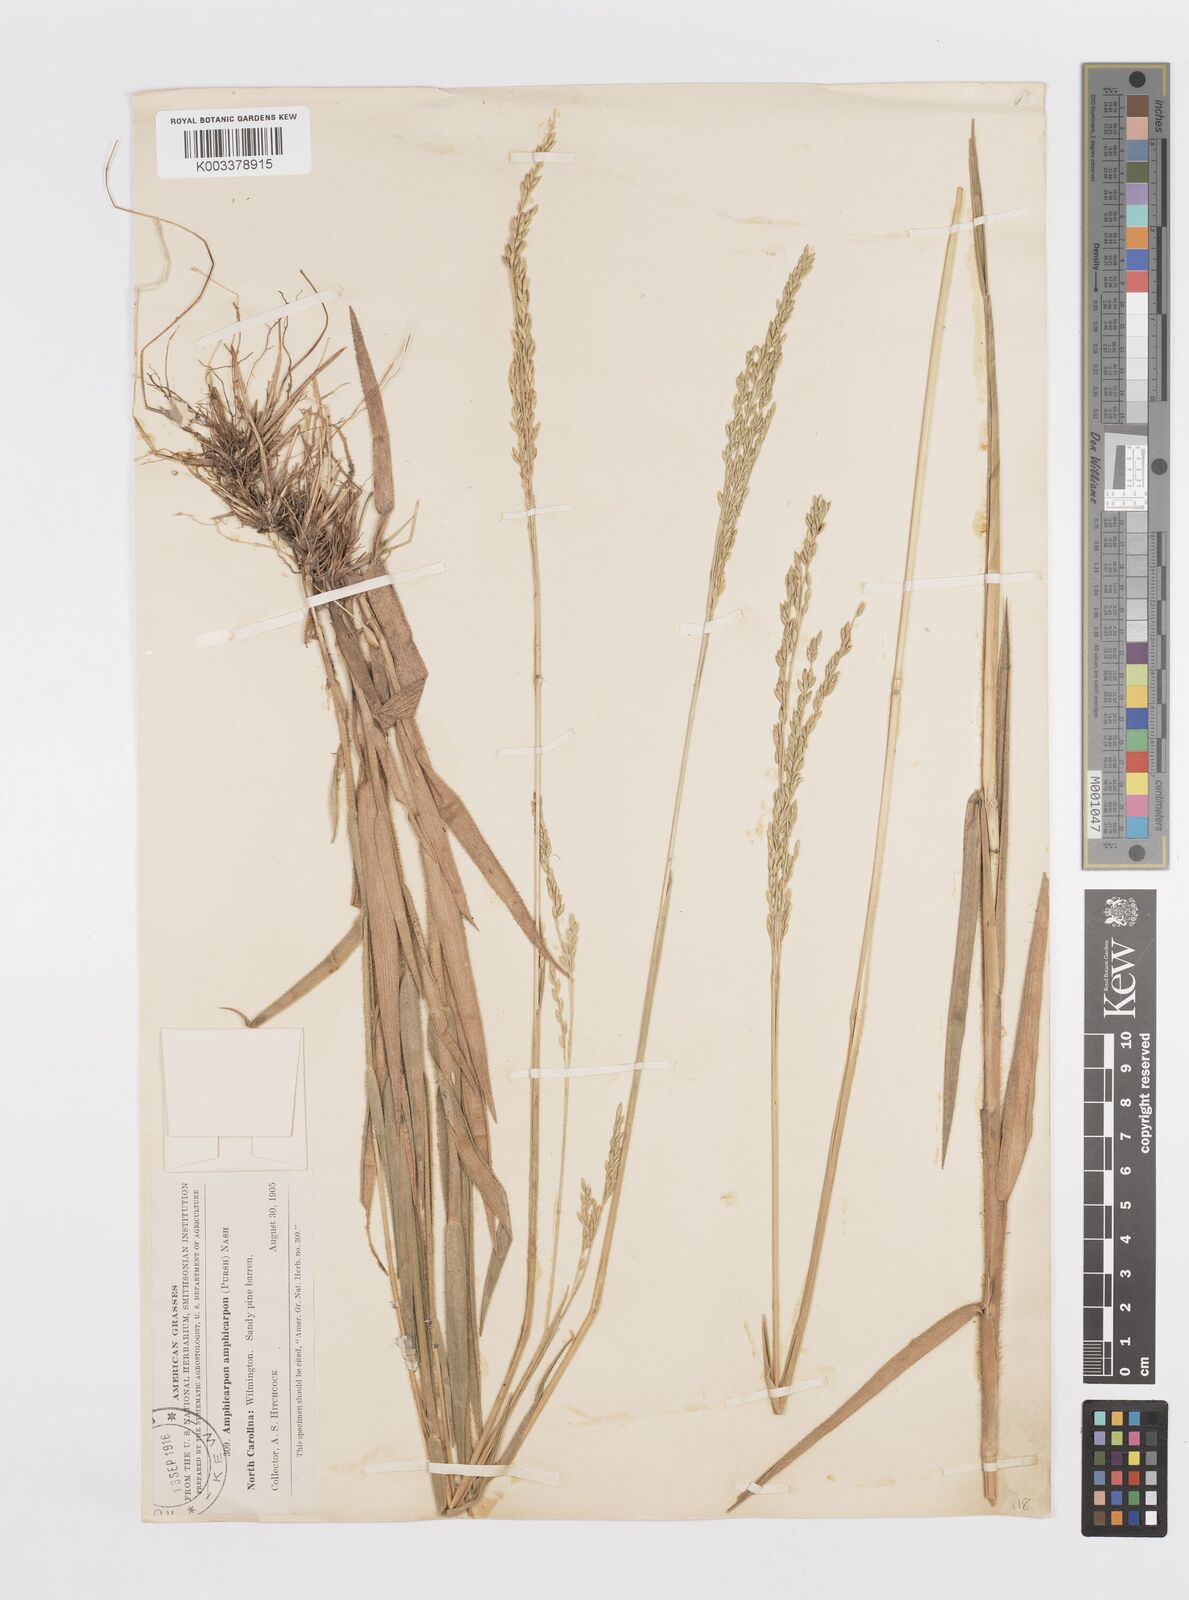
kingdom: Plantae
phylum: Tracheophyta
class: Liliopsida
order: Poales
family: Poaceae
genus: Amphicarpum
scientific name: Amphicarpum
